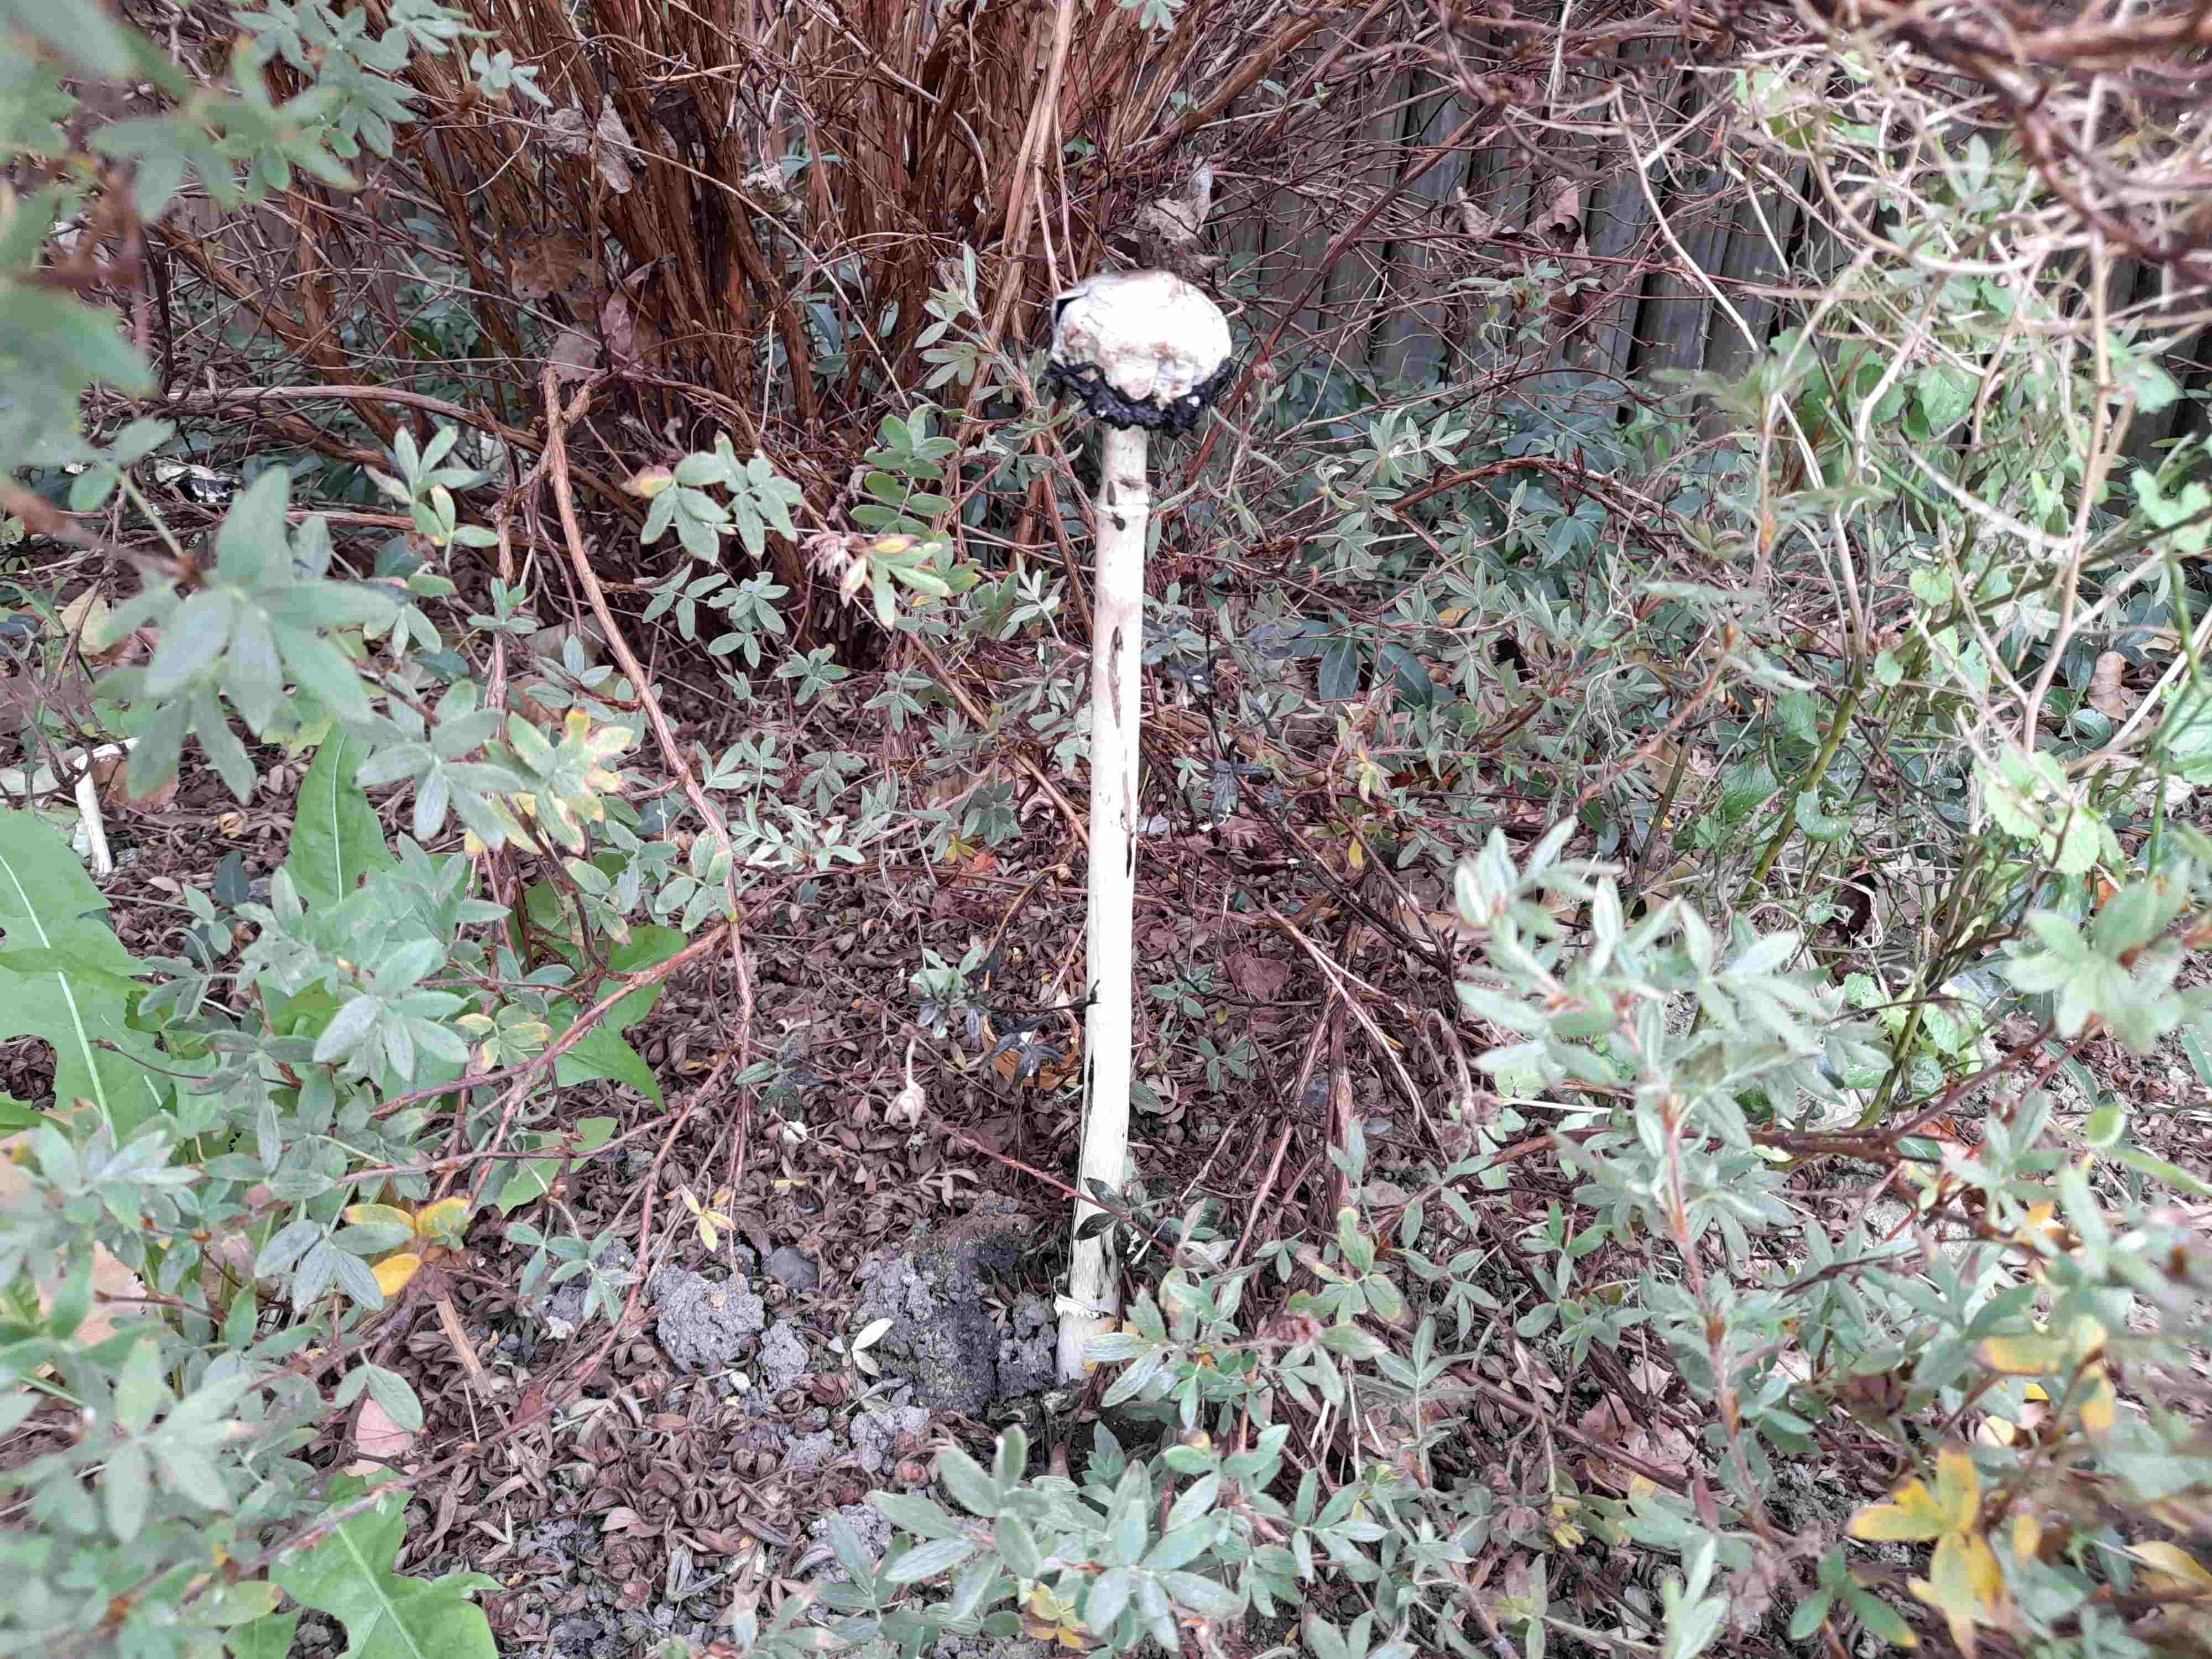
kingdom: Fungi
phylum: Basidiomycota
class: Agaricomycetes
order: Agaricales
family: Agaricaceae
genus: Coprinus
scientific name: Coprinus comatus
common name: stor parykhat
